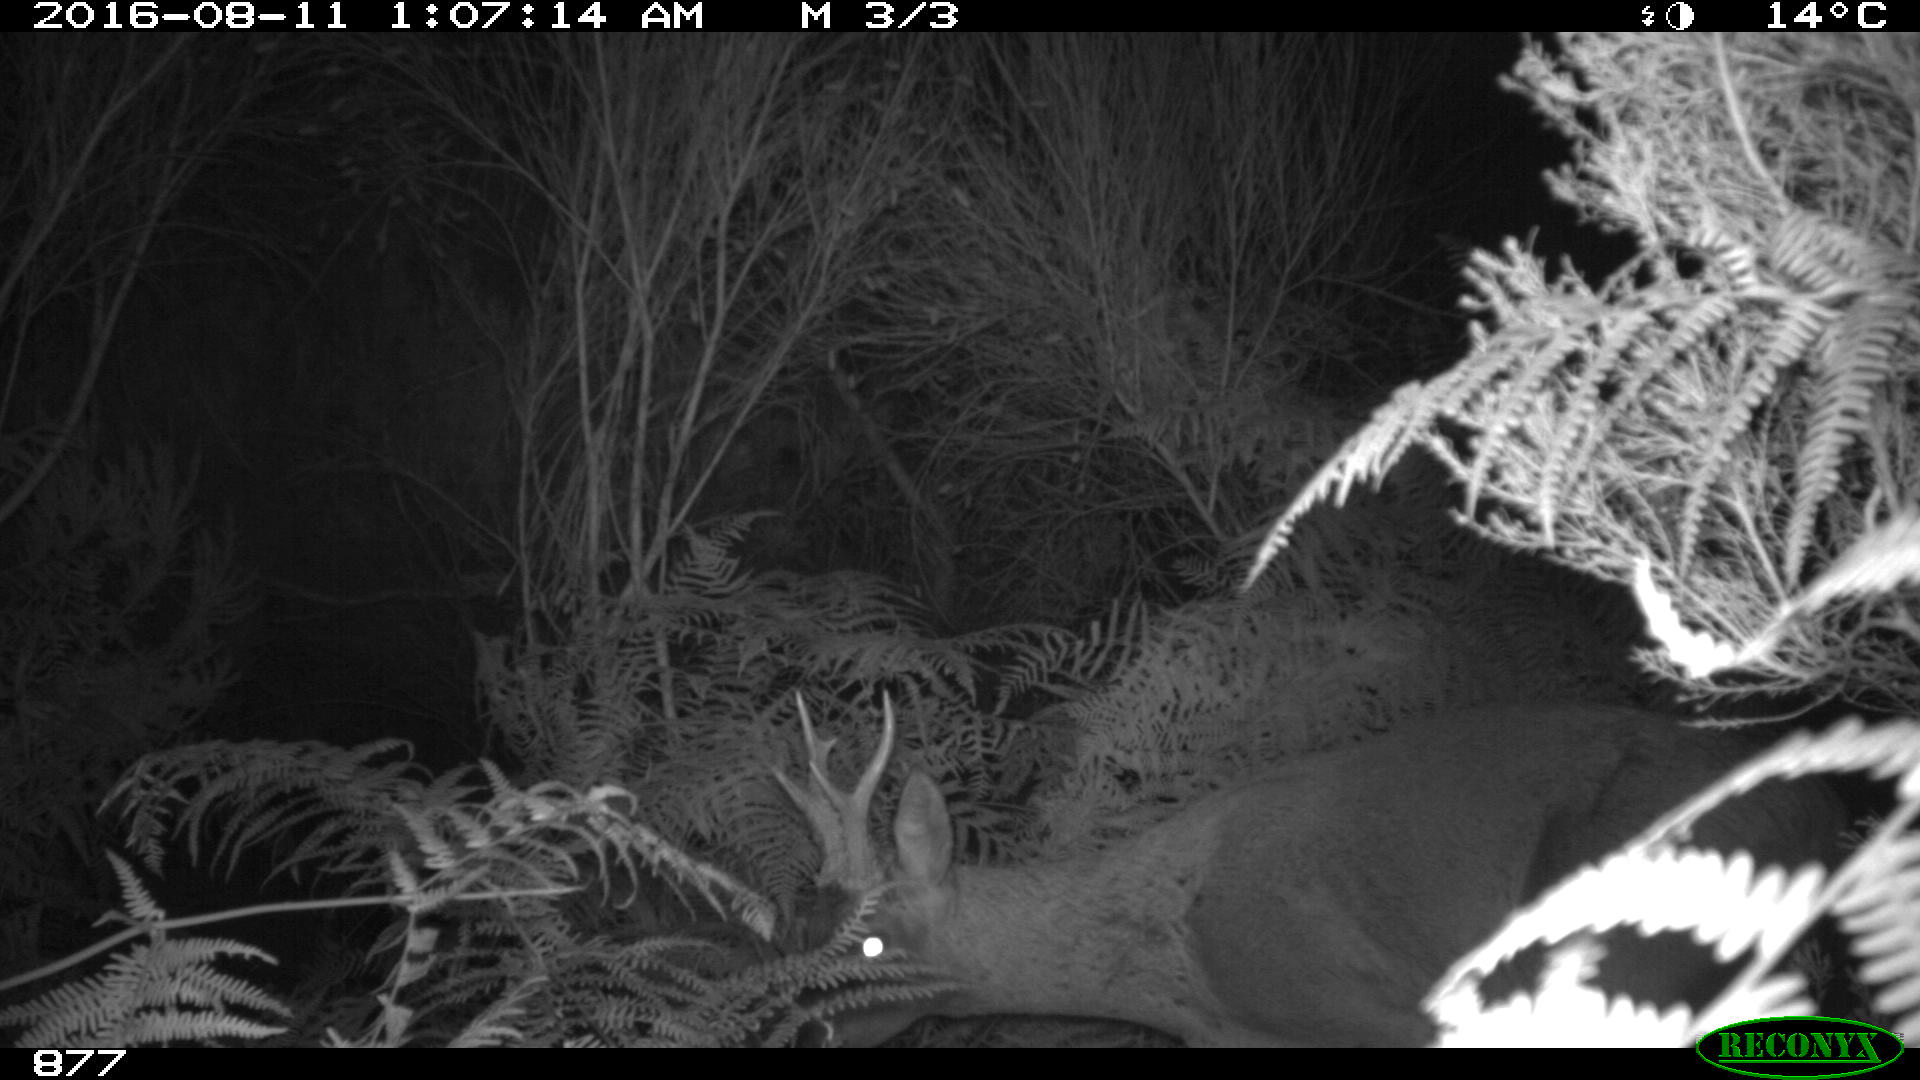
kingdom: Animalia
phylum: Chordata
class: Mammalia
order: Artiodactyla
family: Cervidae
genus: Capreolus
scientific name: Capreolus capreolus
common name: Western roe deer
